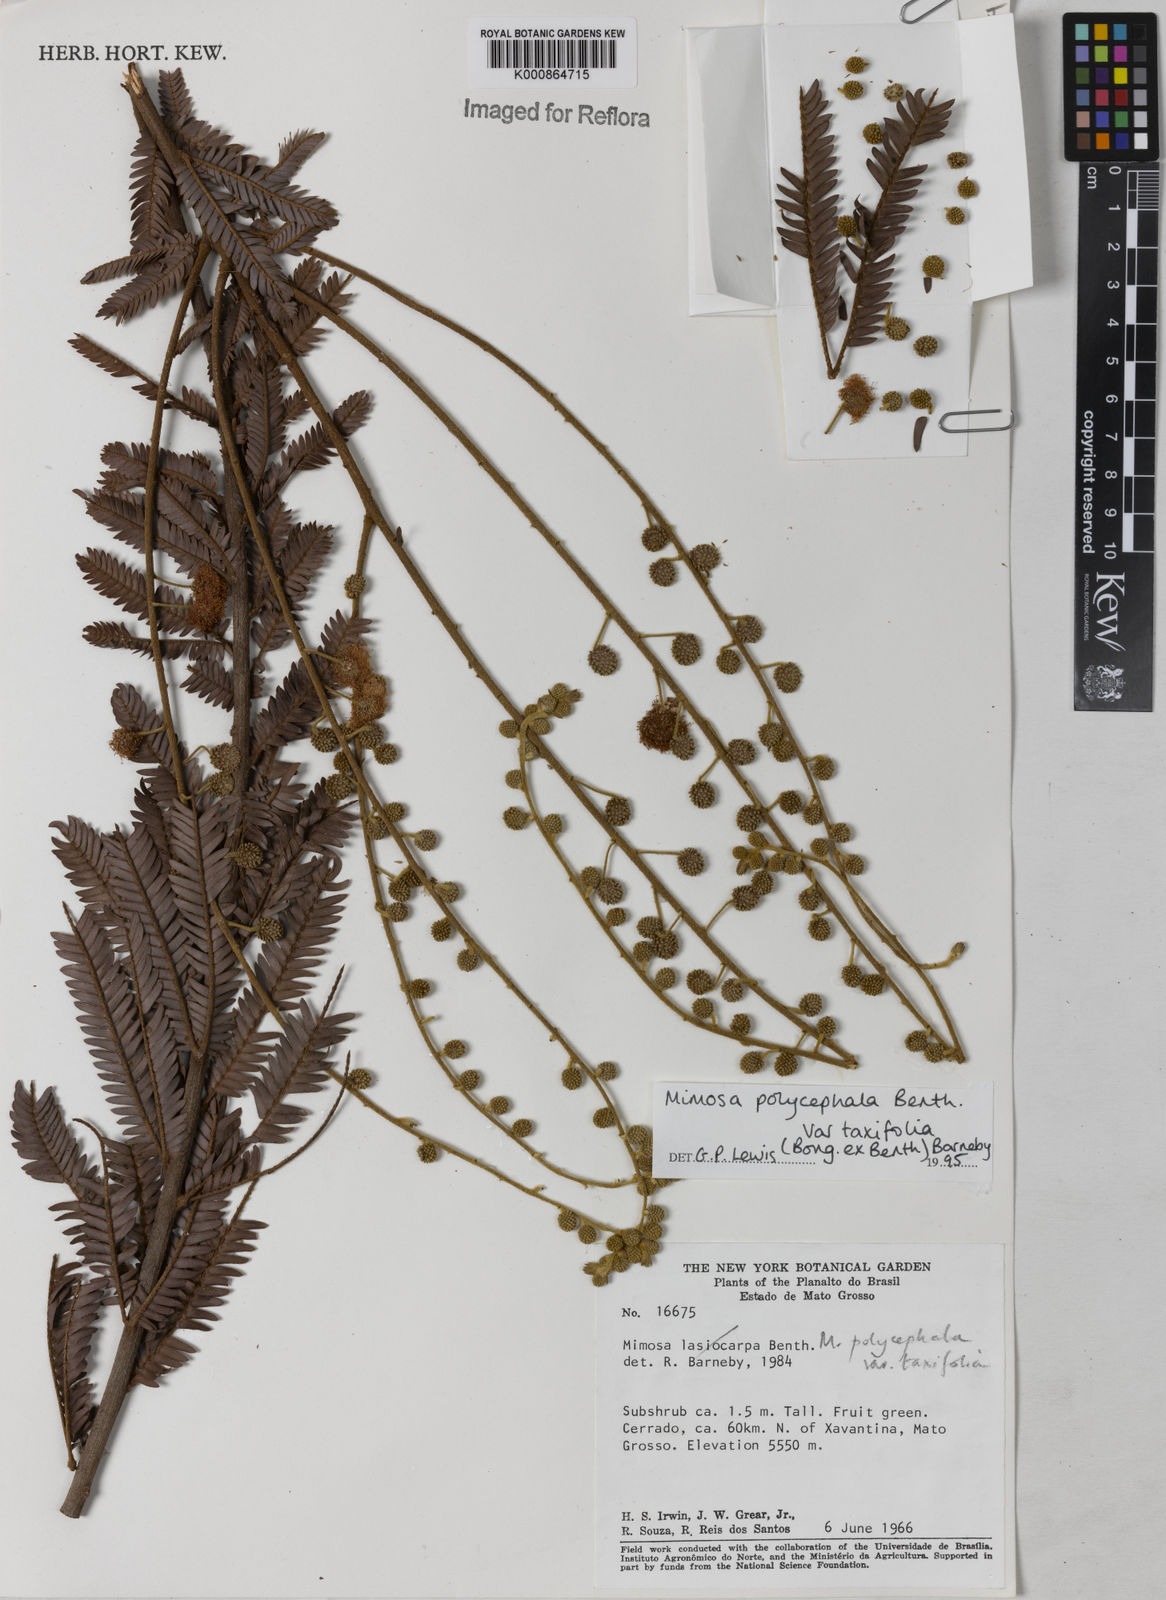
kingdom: Plantae
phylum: Tracheophyta
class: Magnoliopsida
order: Fabales
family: Fabaceae
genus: Mimosa
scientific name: Mimosa polycephala
